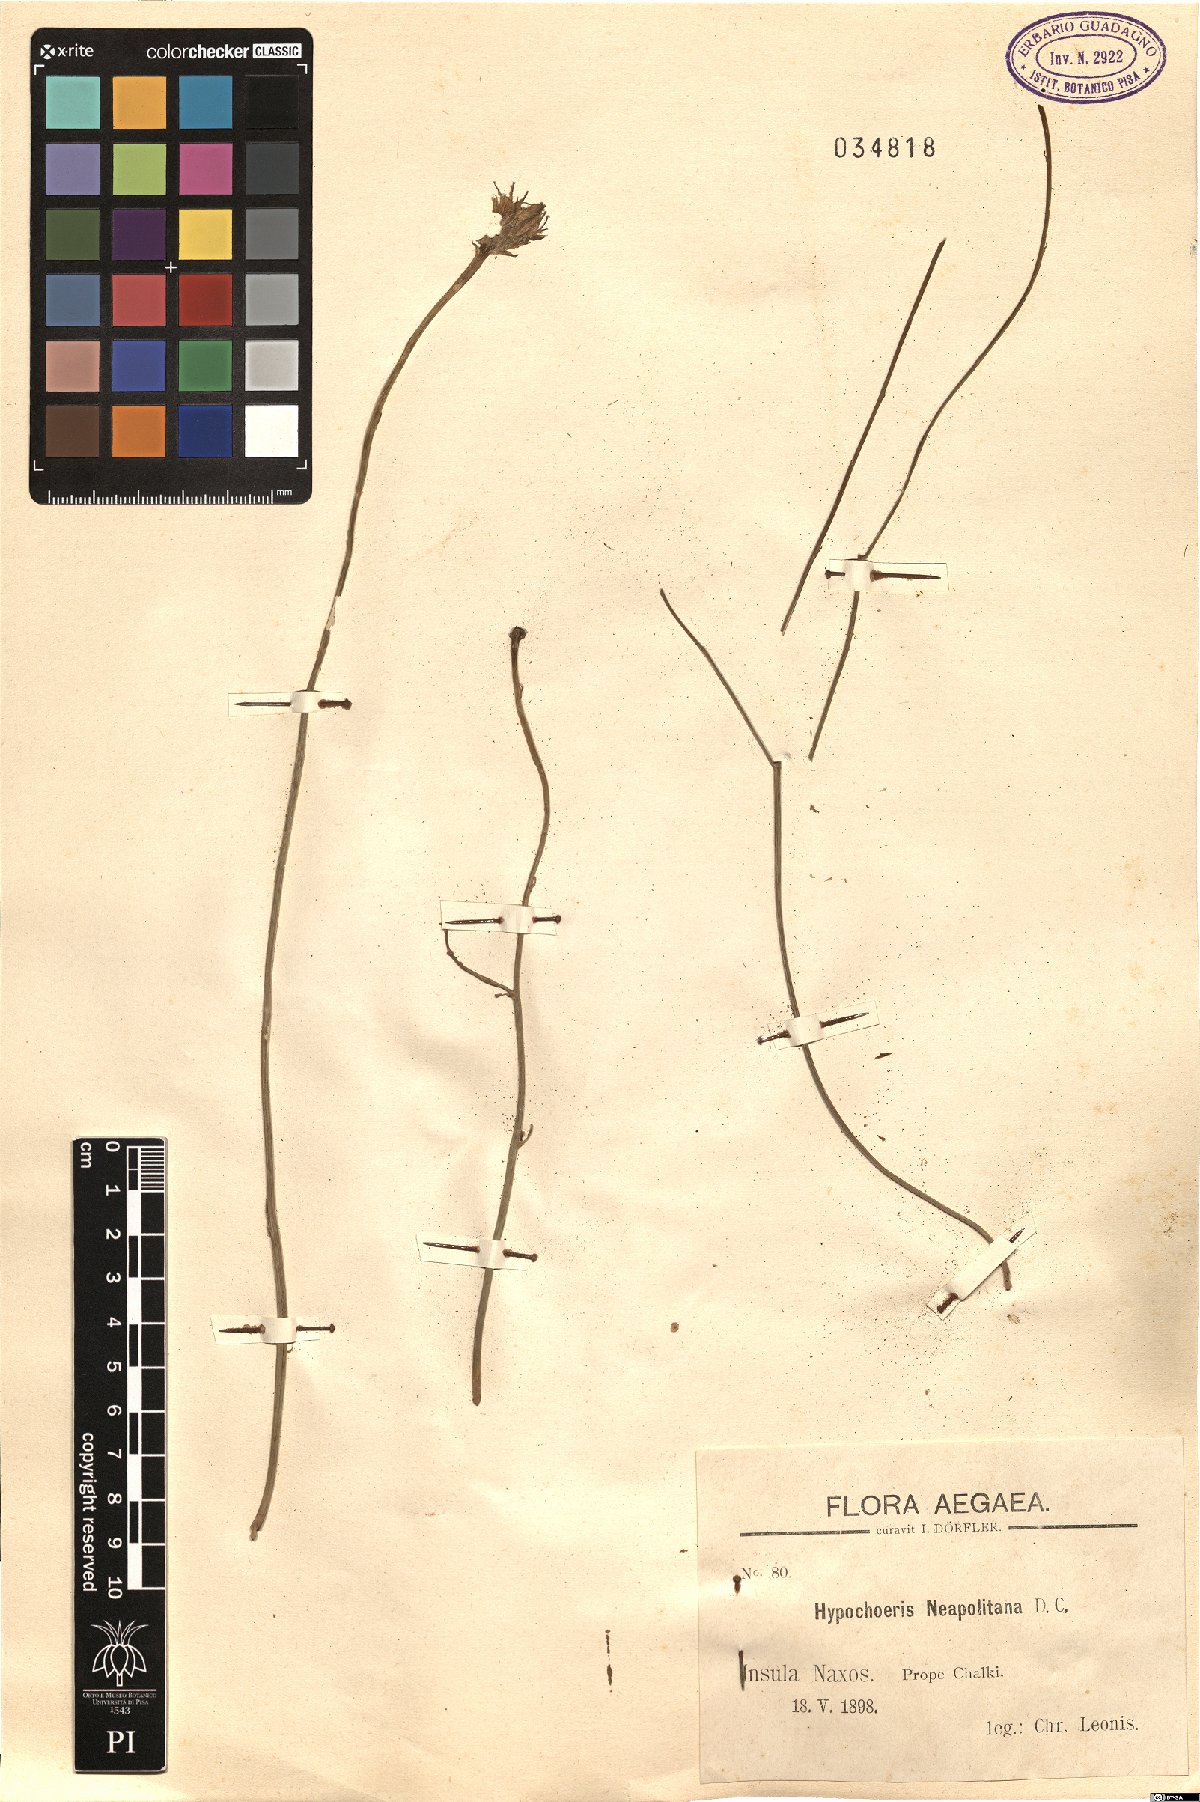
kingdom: Plantae
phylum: Tracheophyta
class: Magnoliopsida
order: Asterales
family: Asteraceae
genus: Hypochaeris
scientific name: Hypochaeris radicata
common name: Flatweed
